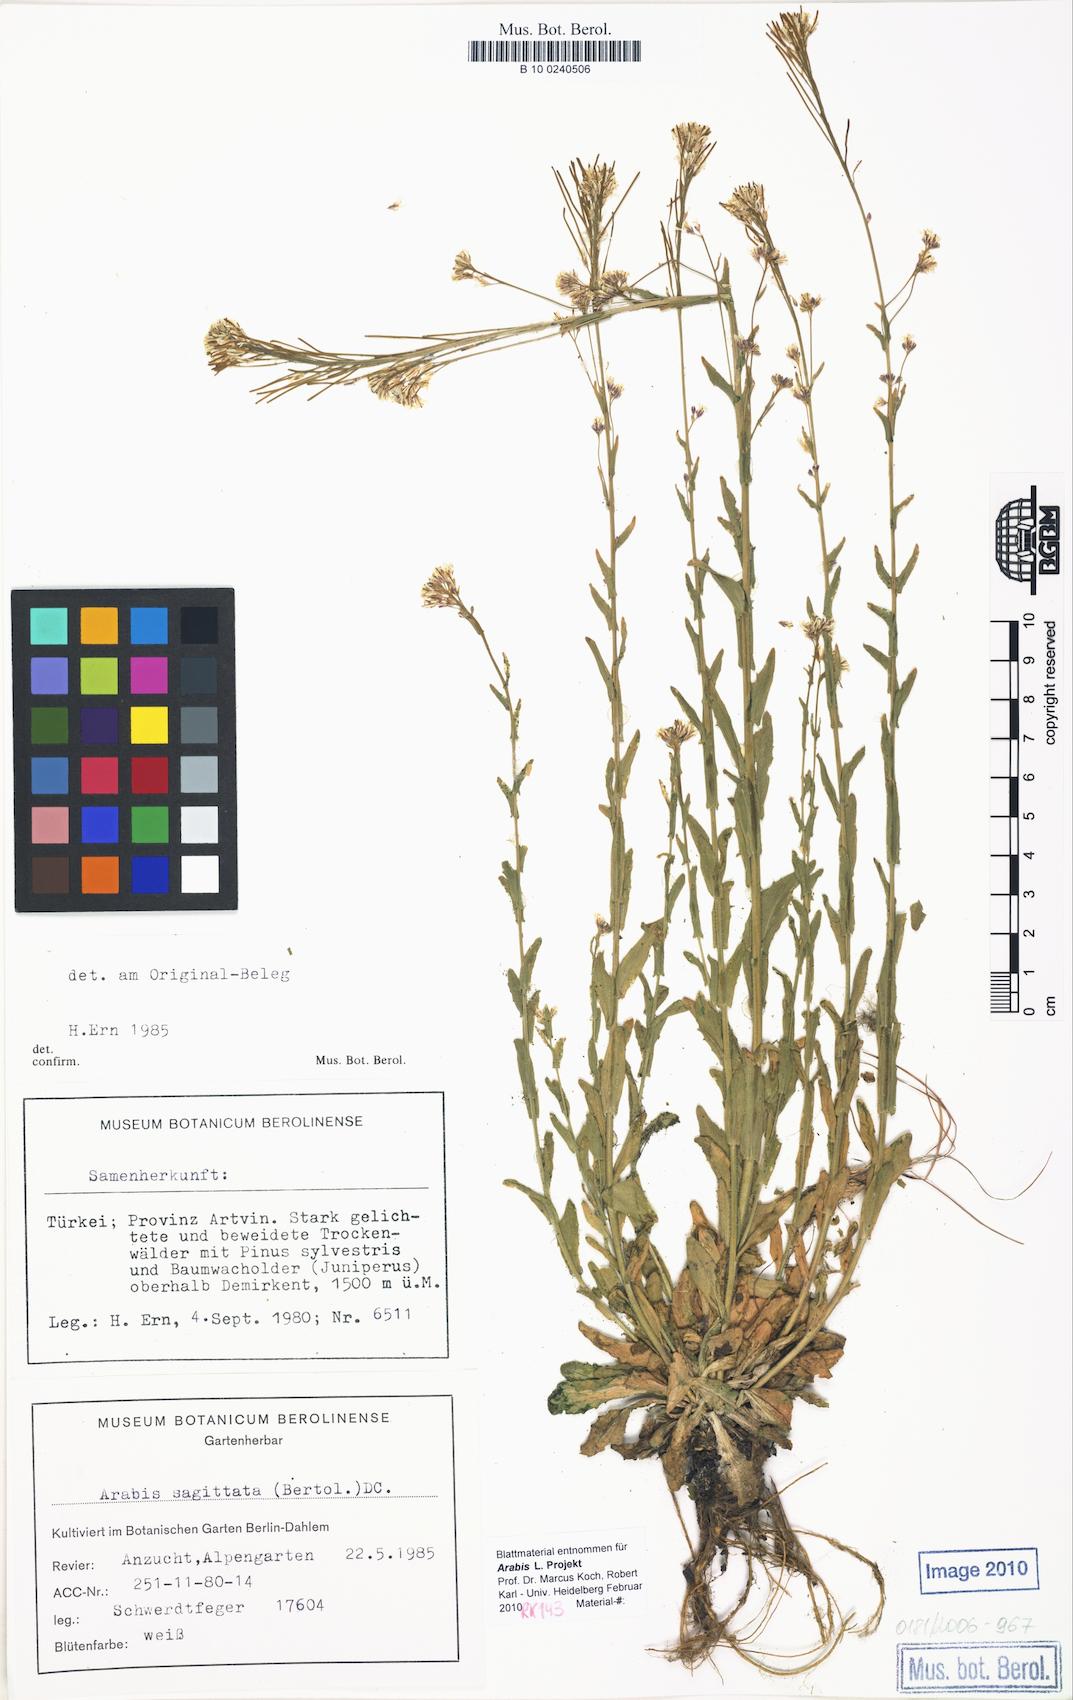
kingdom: Plantae
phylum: Tracheophyta
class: Magnoliopsida
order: Brassicales
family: Brassicaceae
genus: Arabis
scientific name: Arabis sagittata
